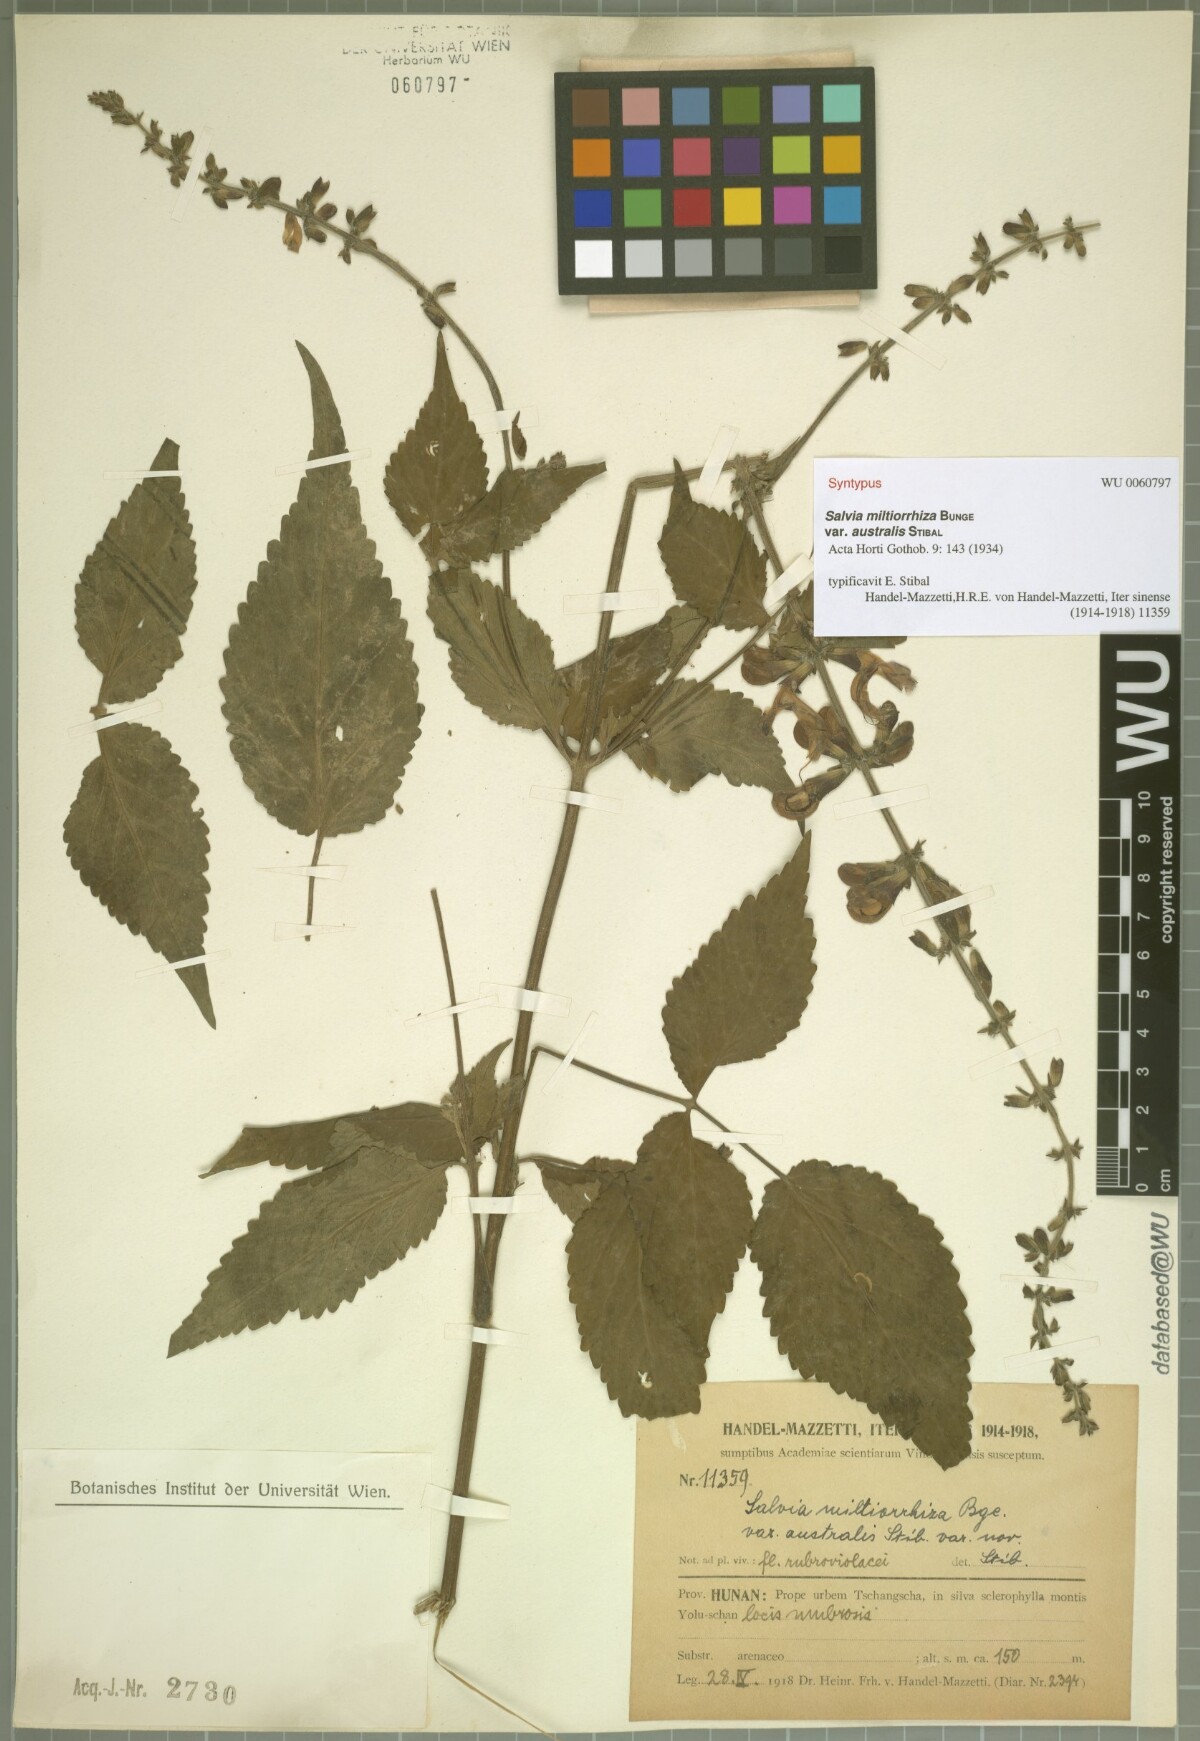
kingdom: Plantae
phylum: Tracheophyta
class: Magnoliopsida
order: Lamiales
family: Lamiaceae
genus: Salvia
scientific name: Salvia bowleyana
